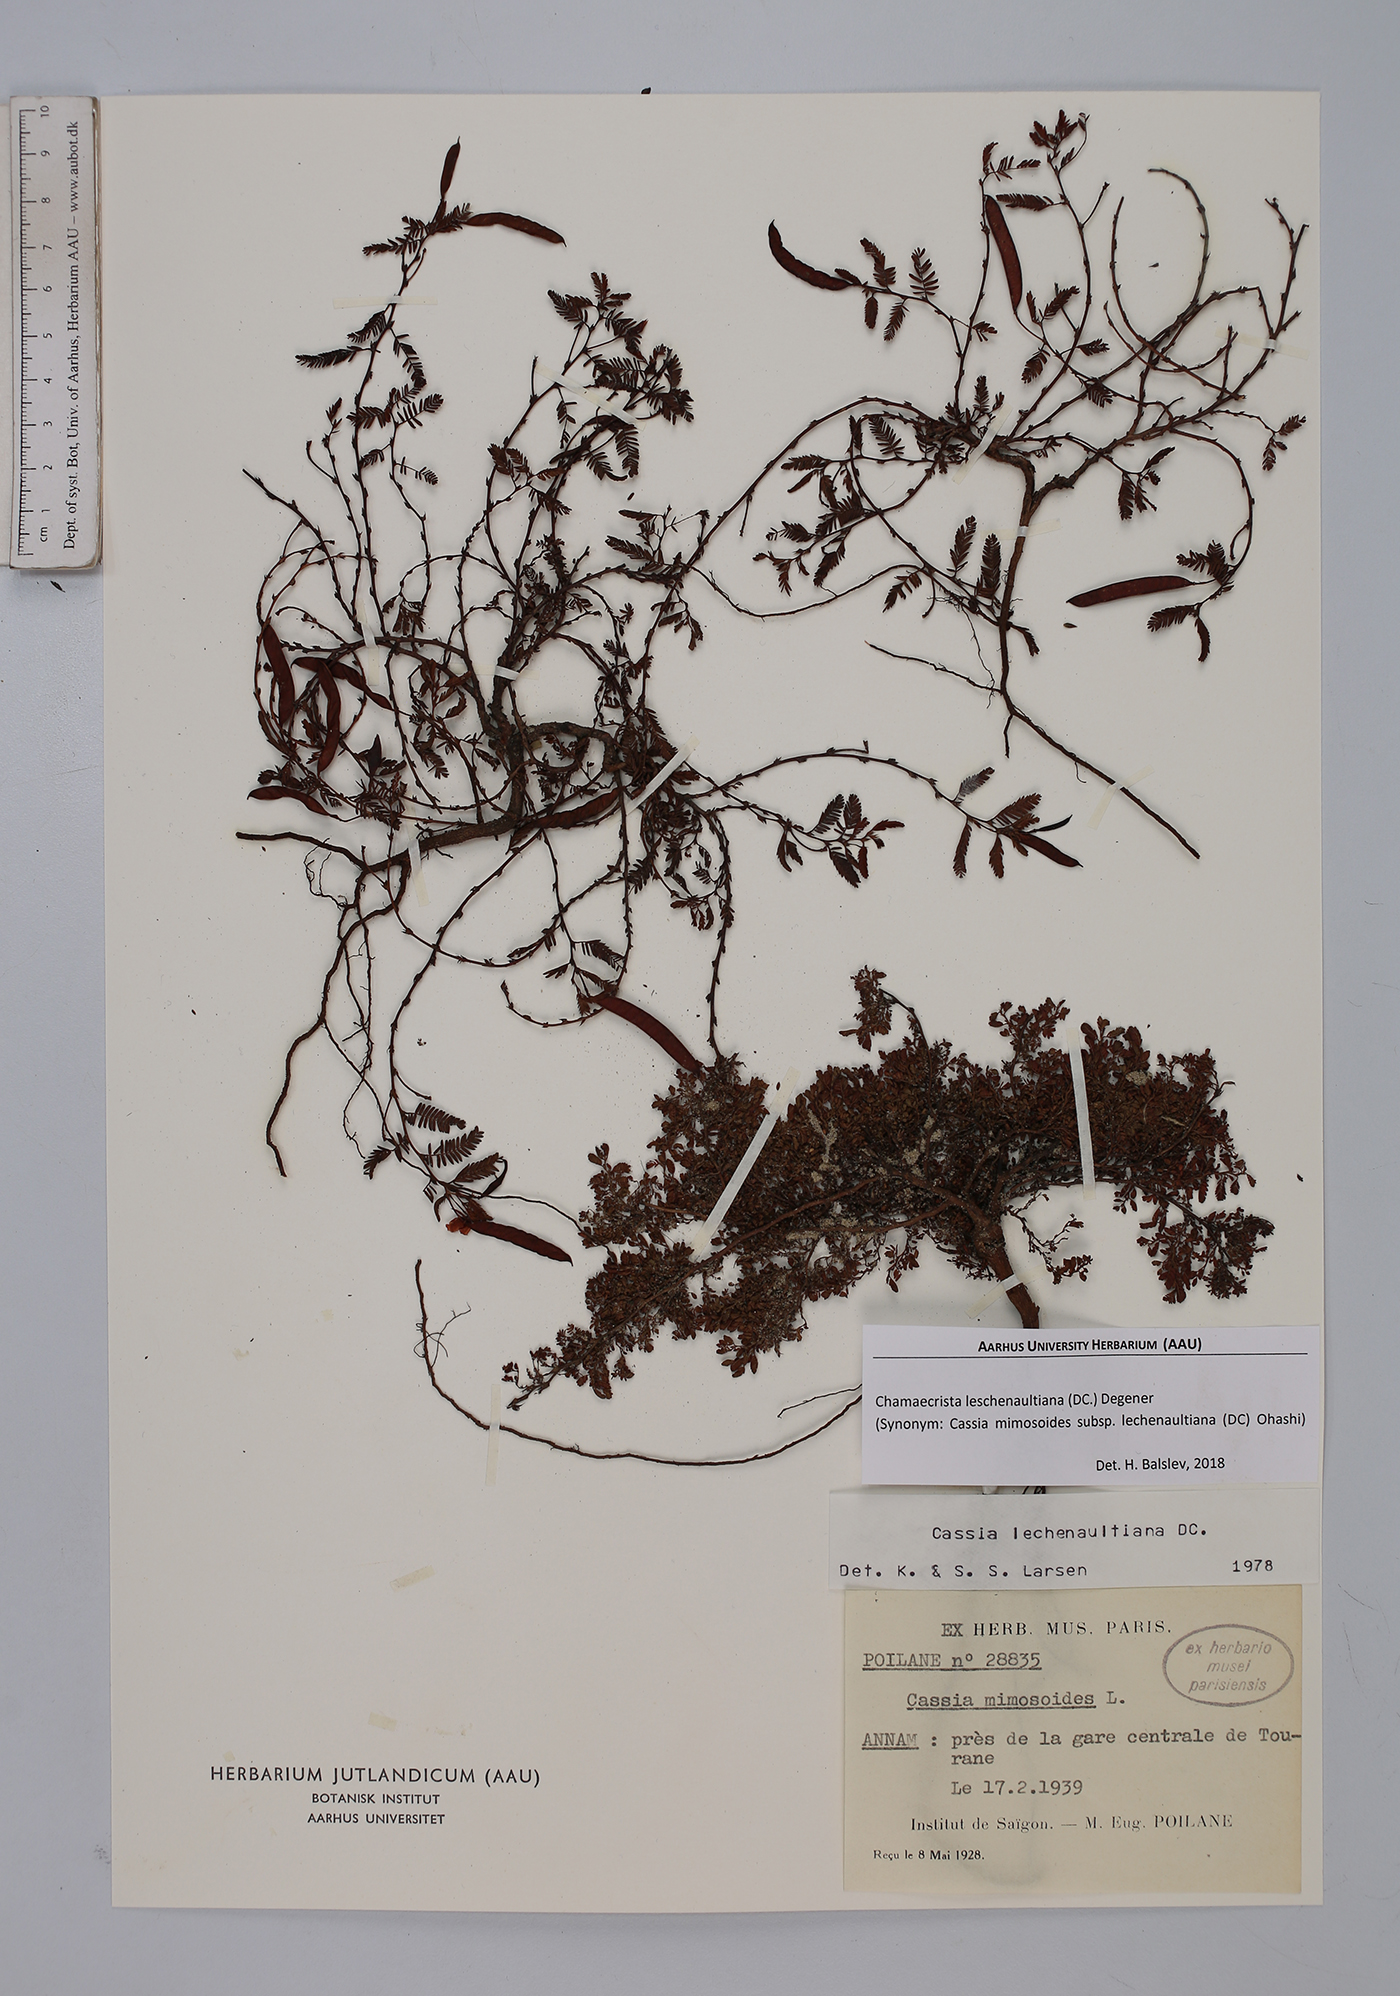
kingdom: Plantae
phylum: Tracheophyta
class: Magnoliopsida
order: Fabales
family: Fabaceae
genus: Chamaecrista
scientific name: Chamaecrista nictitans
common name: Sensitive cassia
